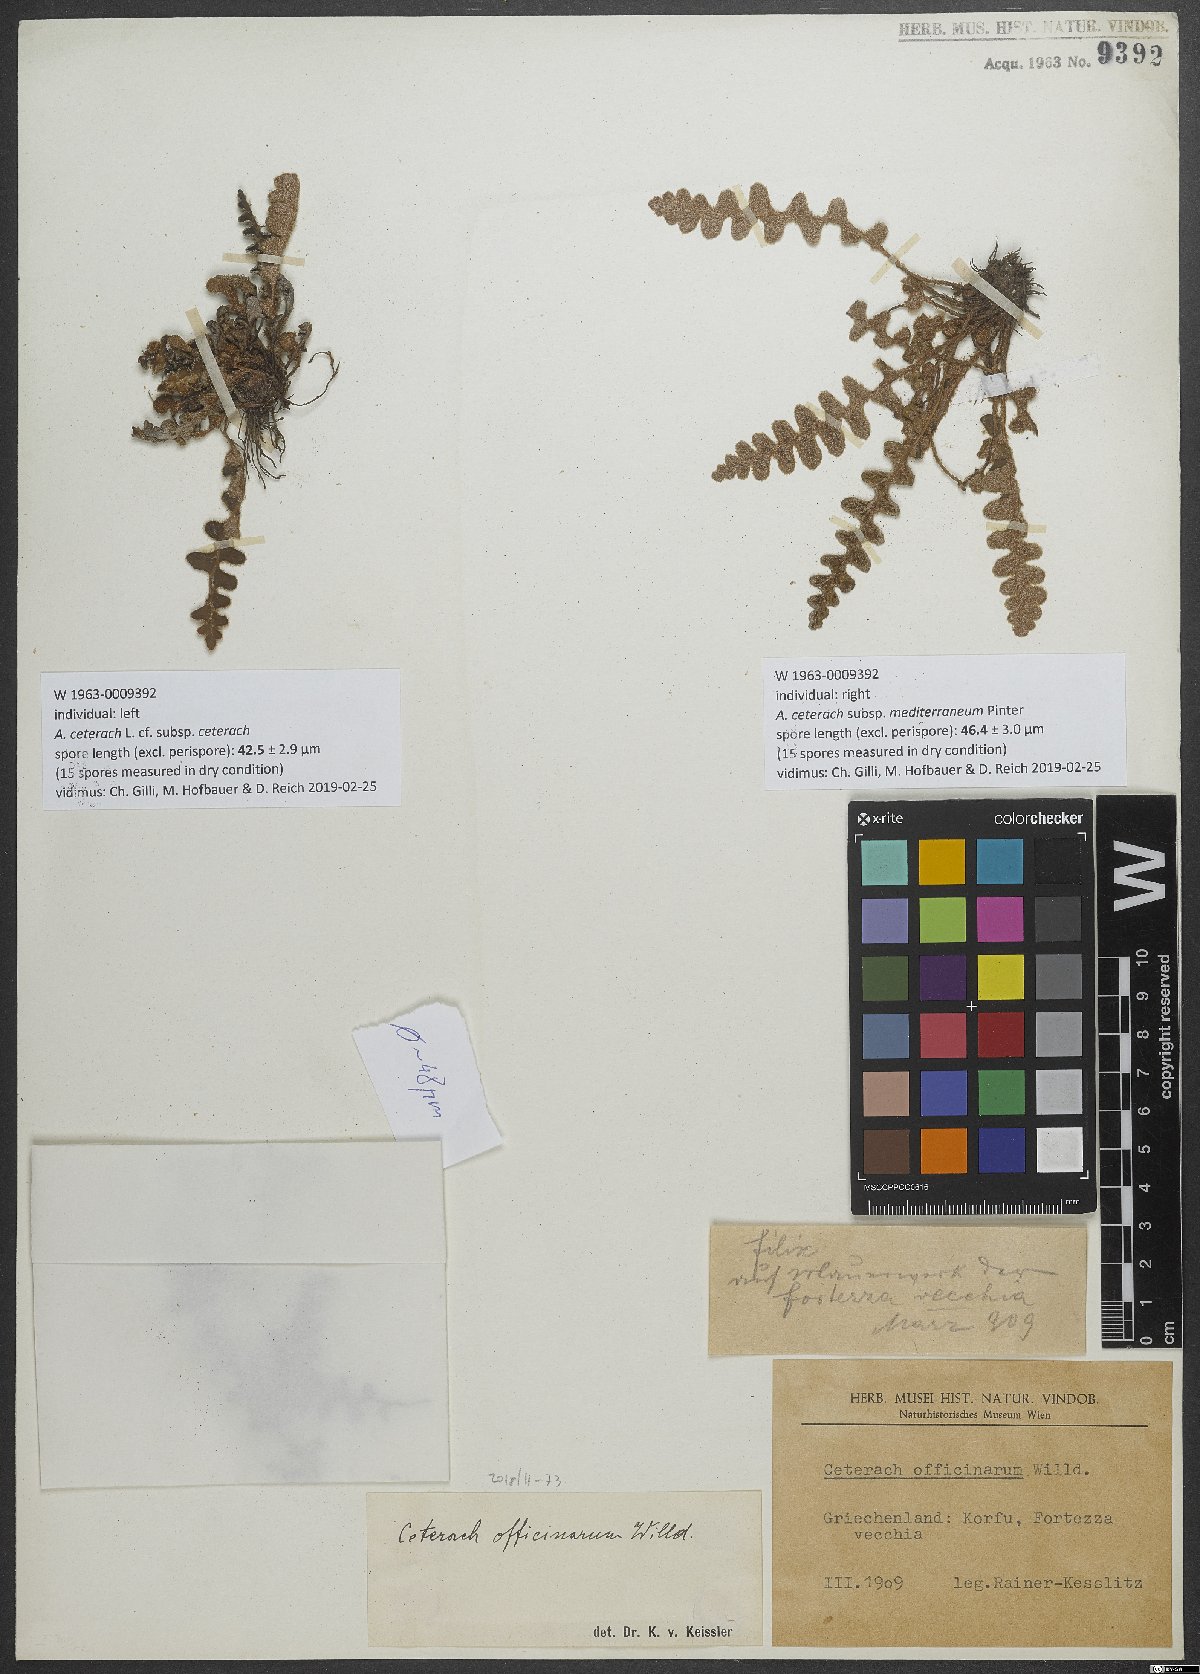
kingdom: Plantae
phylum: Tracheophyta
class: Polypodiopsida
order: Polypodiales
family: Aspleniaceae
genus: Asplenium
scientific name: Asplenium ceterach
